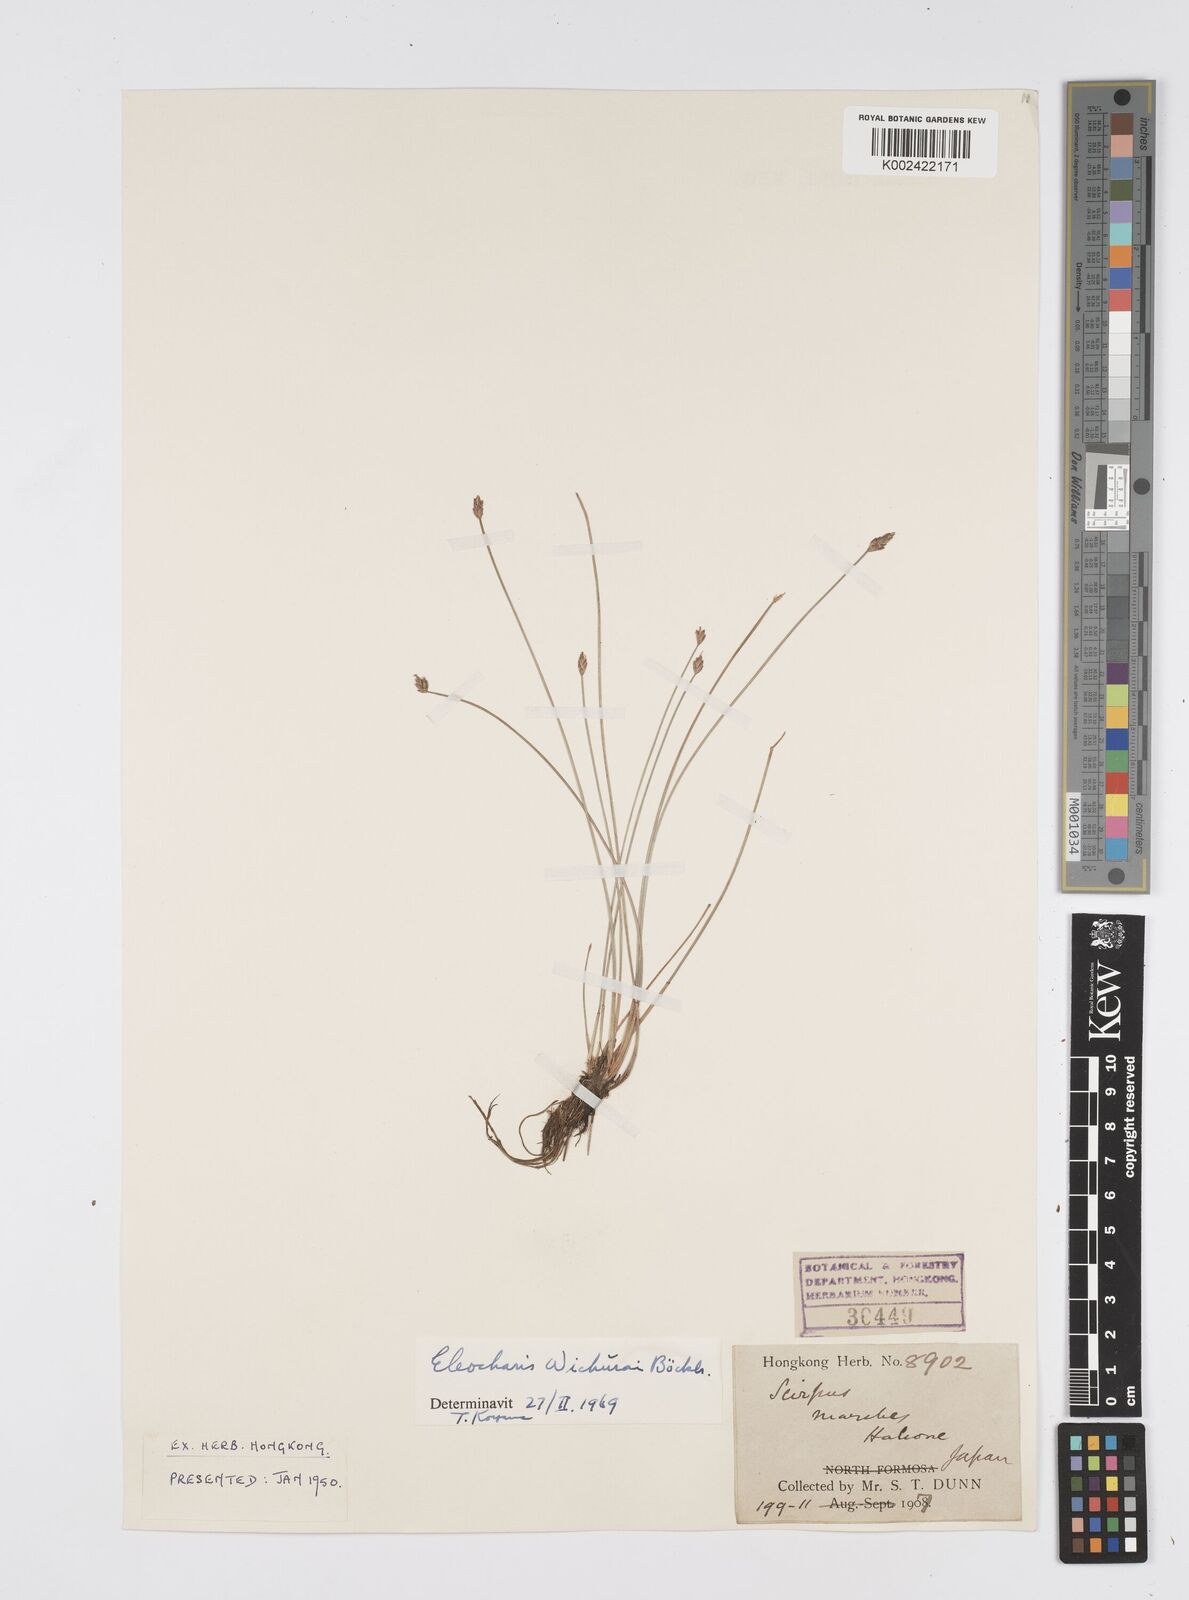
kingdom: Plantae
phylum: Tracheophyta
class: Liliopsida
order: Poales
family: Cyperaceae
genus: Eleocharis
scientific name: Eleocharis tetraquetra
